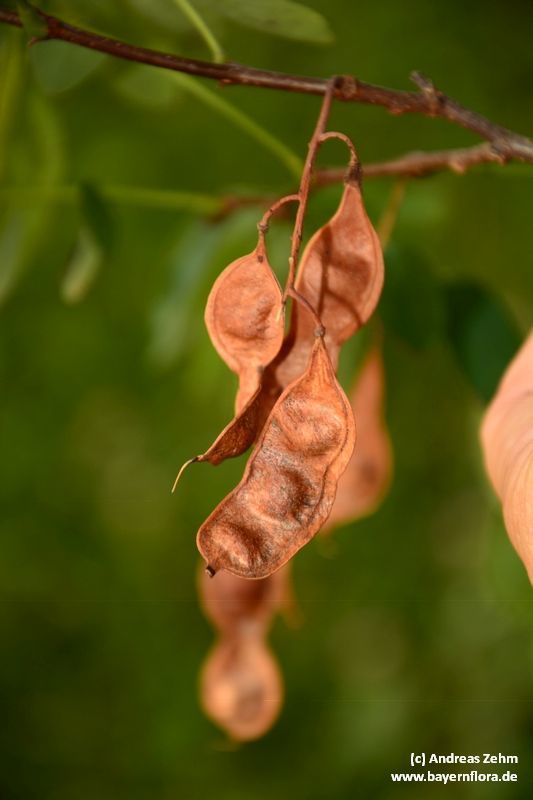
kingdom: Plantae
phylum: Tracheophyta
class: Magnoliopsida
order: Fabales
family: Fabaceae
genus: Robinia
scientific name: Robinia pseudoacacia
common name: Black locust
